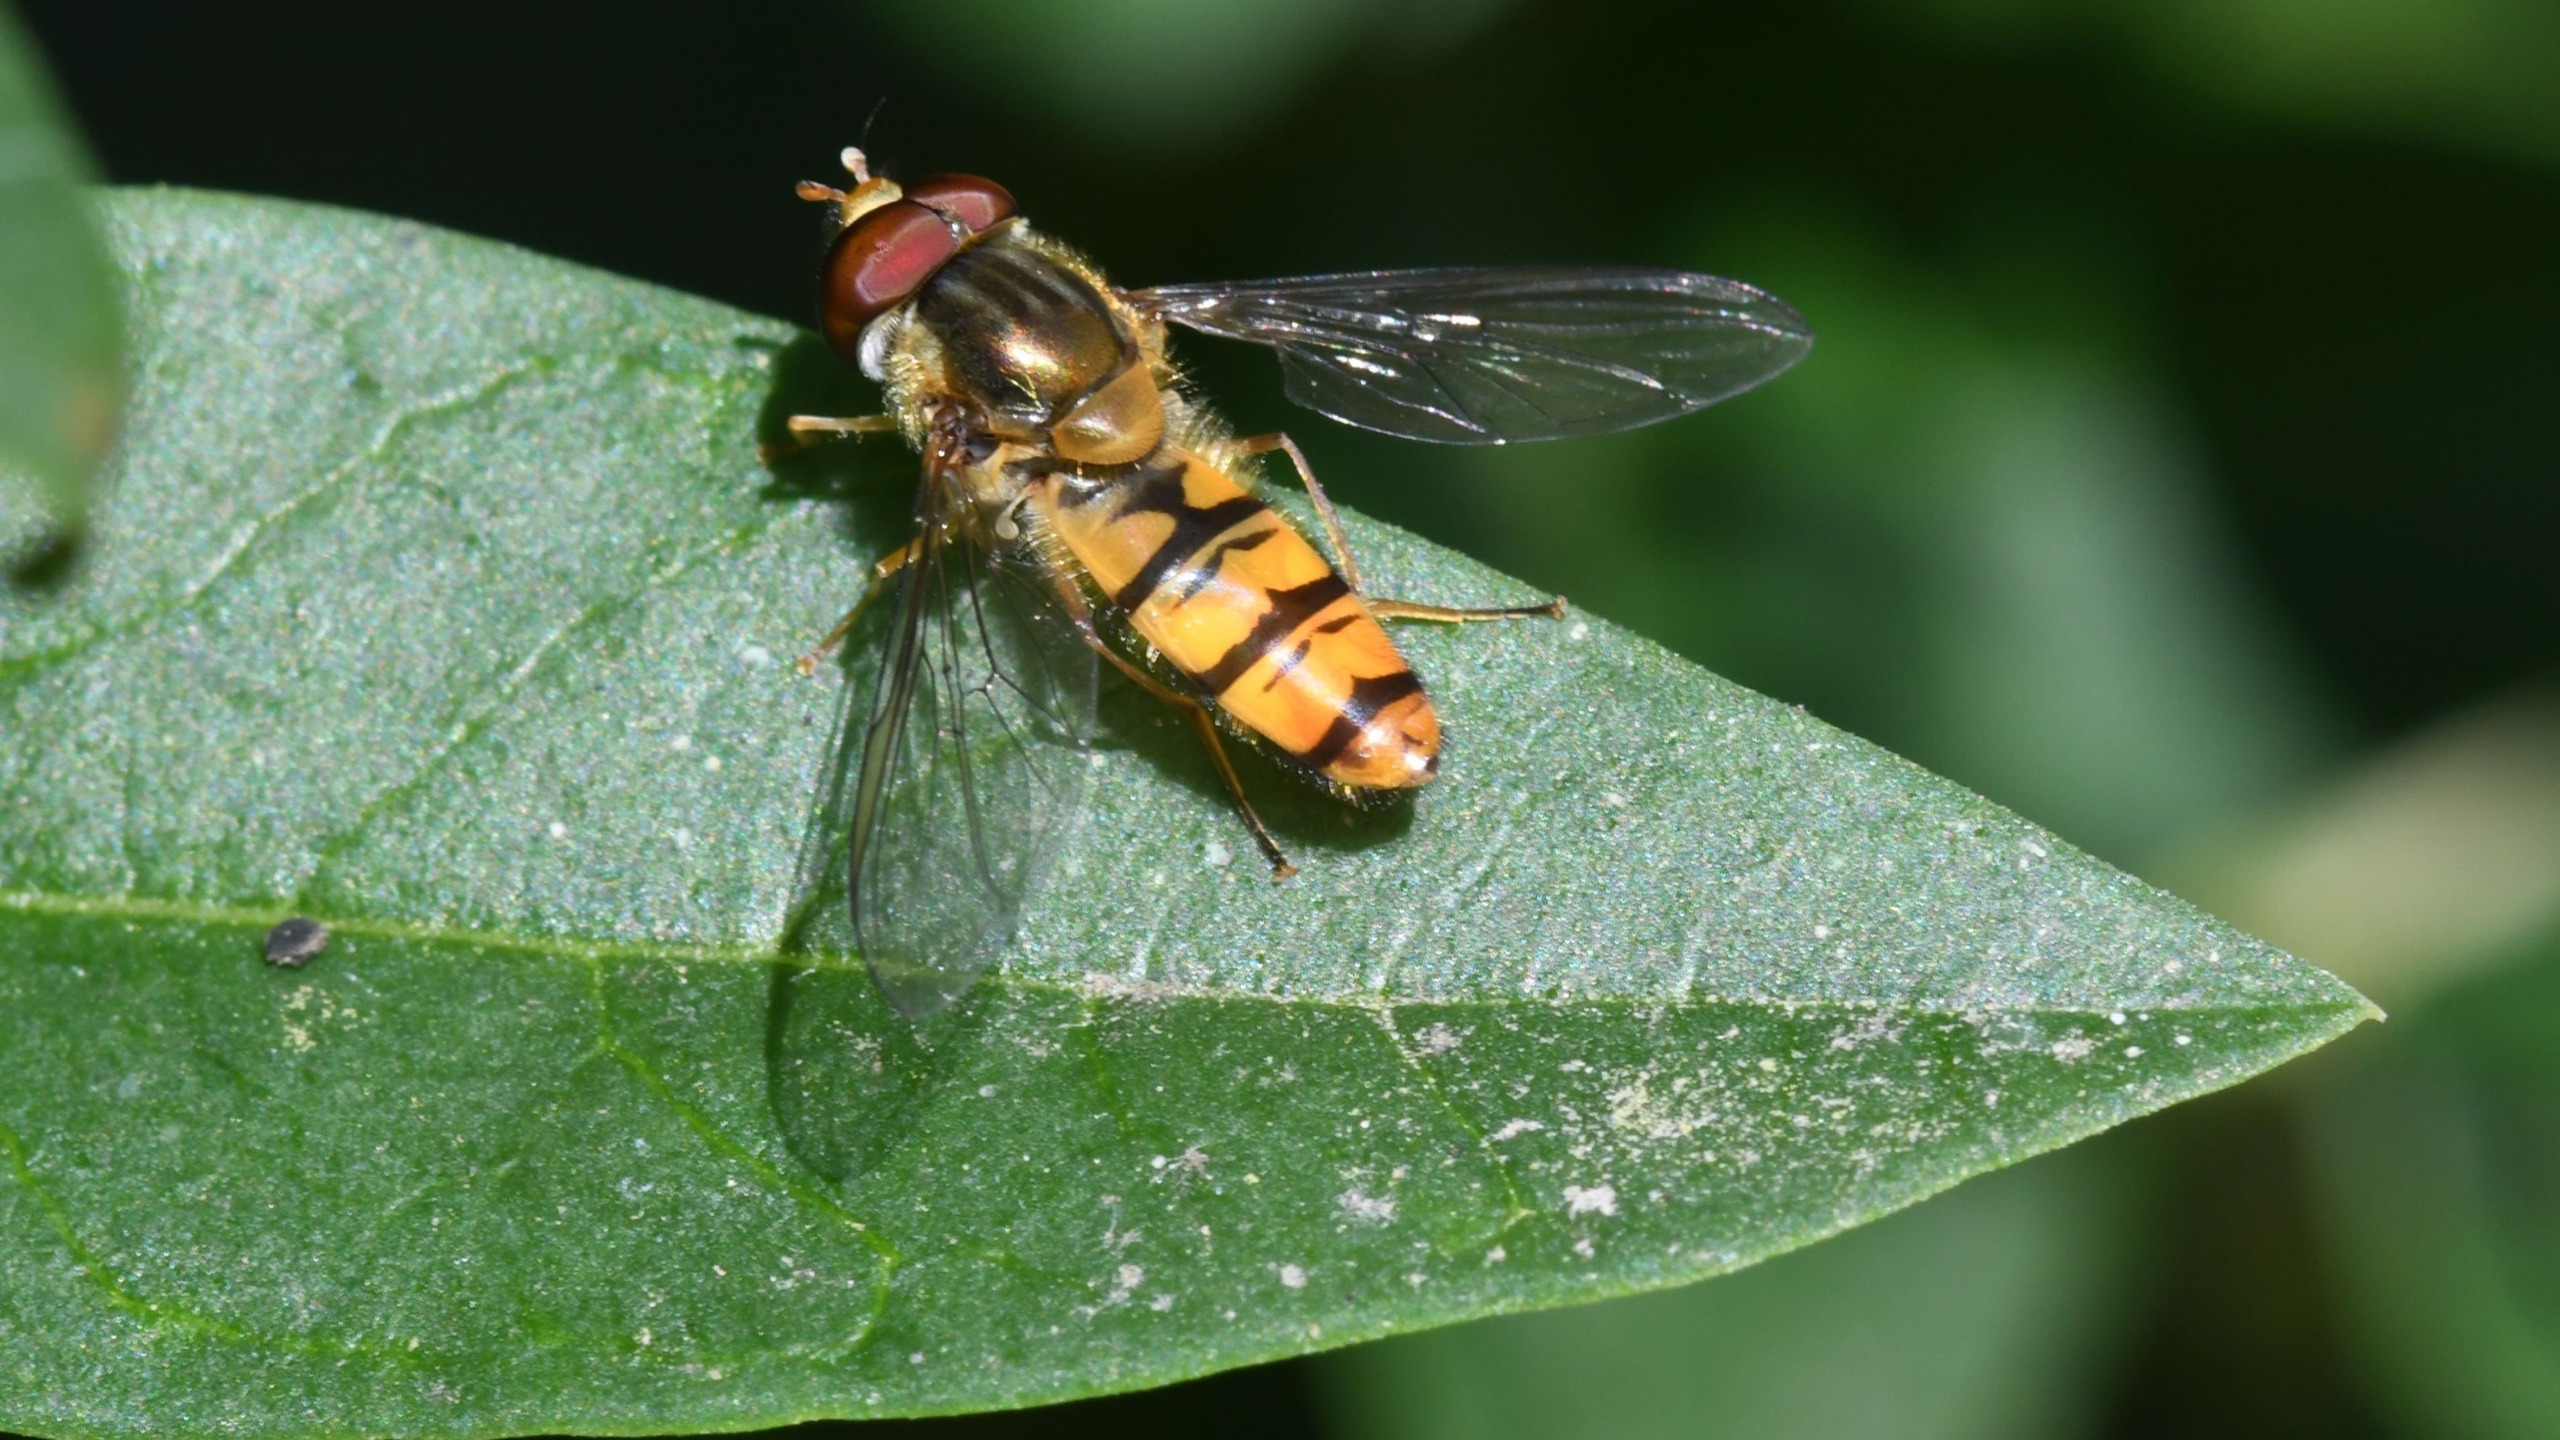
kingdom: Animalia
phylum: Arthropoda
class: Insecta
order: Diptera
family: Syrphidae
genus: Episyrphus
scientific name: Episyrphus balteatus
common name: Dobbeltbåndet svirreflue
